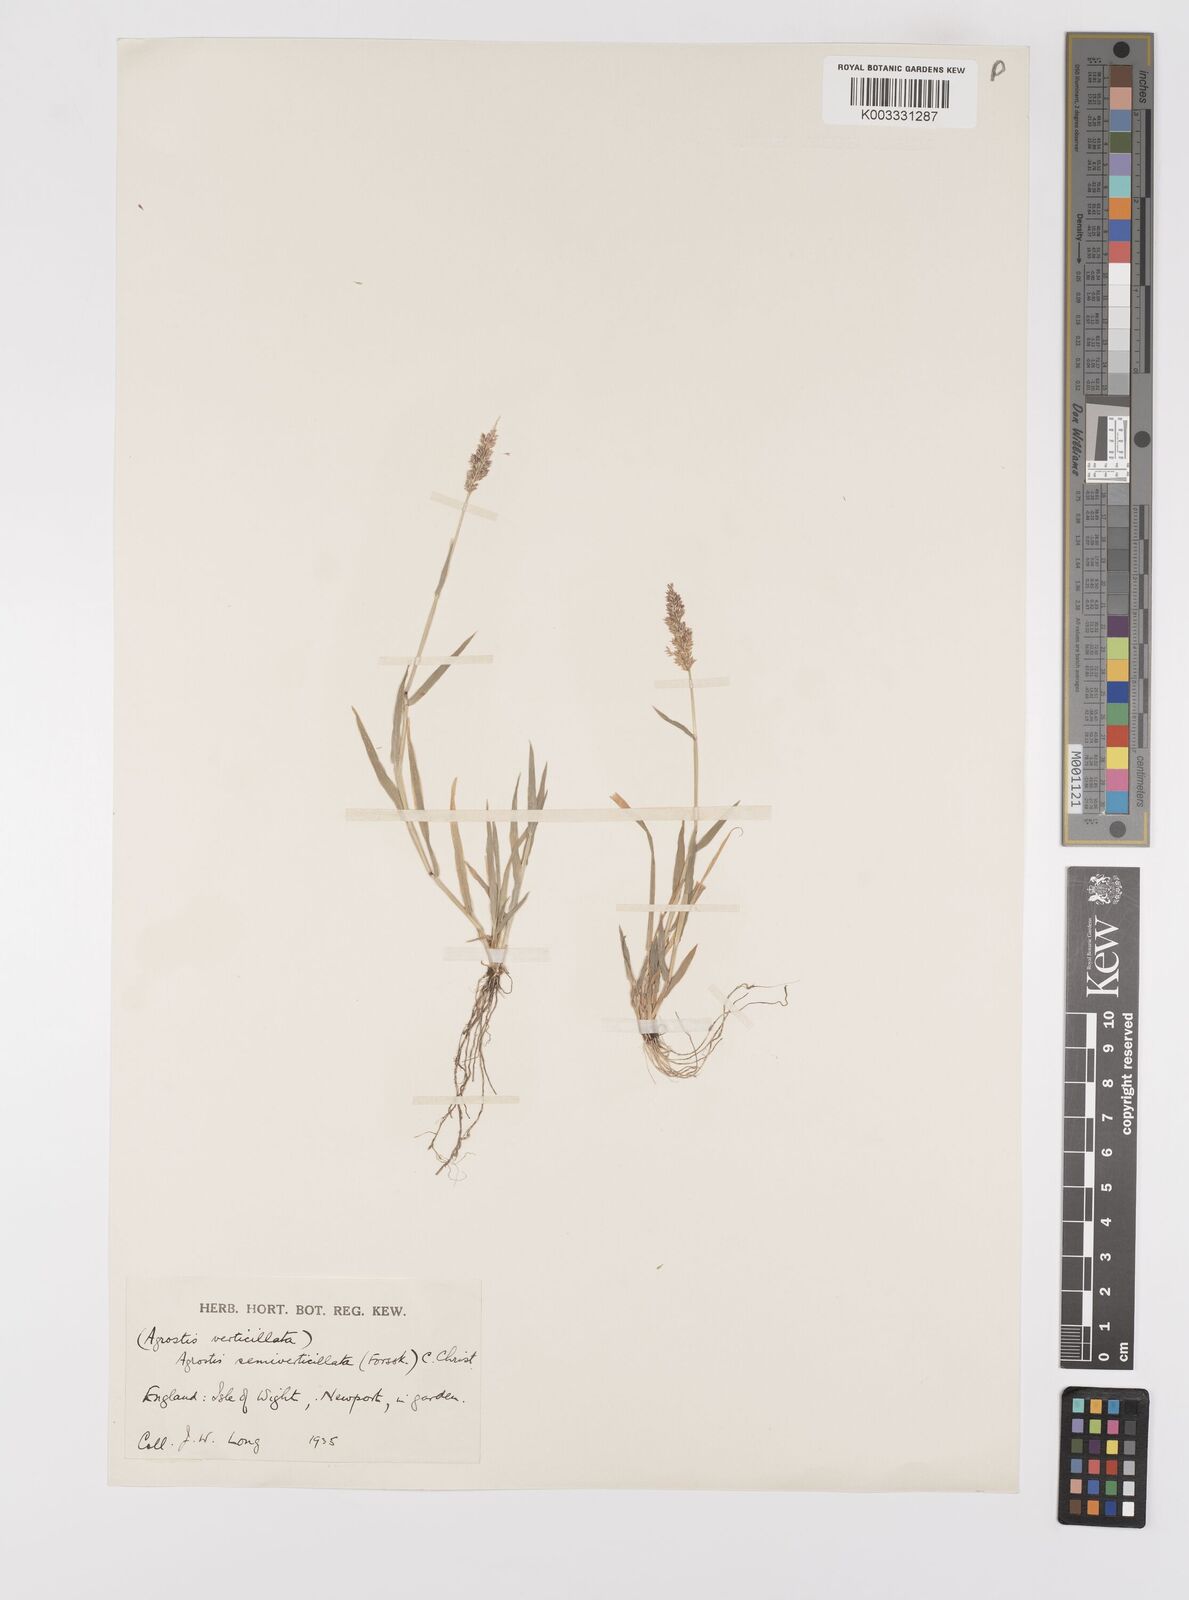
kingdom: Plantae
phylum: Tracheophyta
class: Liliopsida
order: Poales
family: Poaceae
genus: Polypogon
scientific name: Polypogon viridis
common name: Water bent
